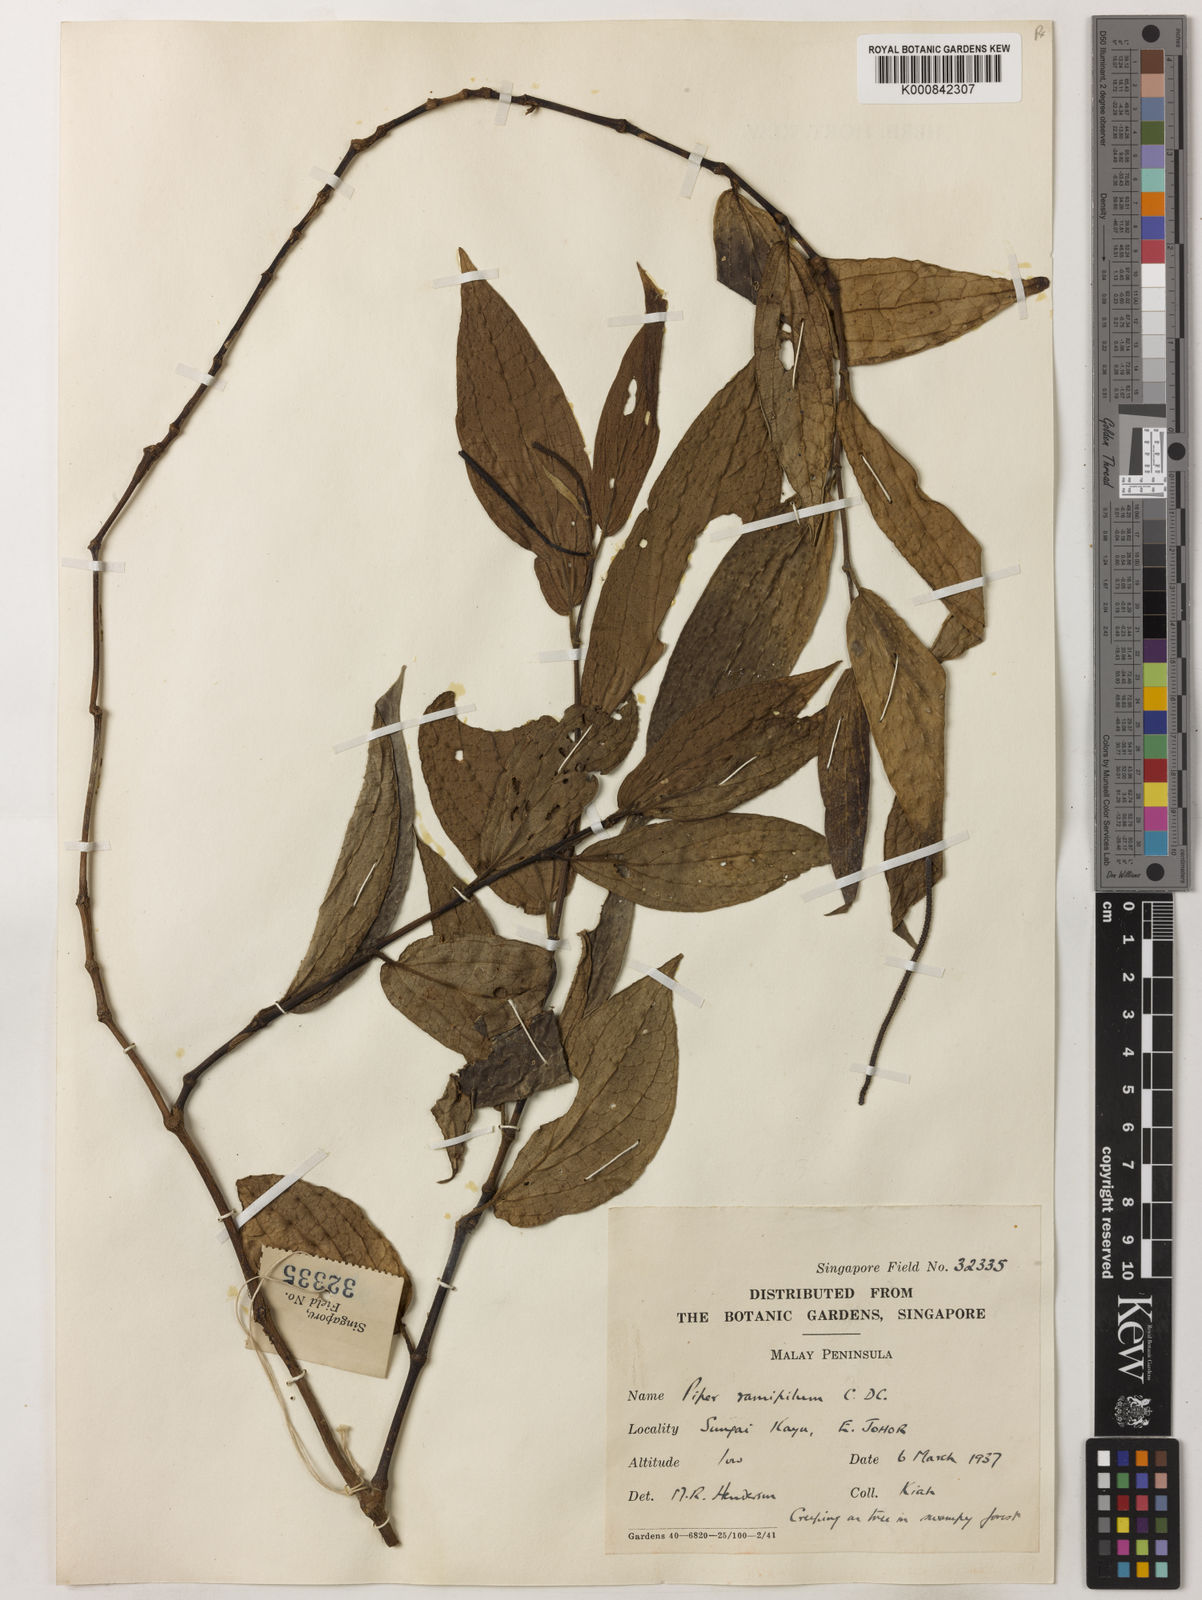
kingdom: Plantae
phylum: Tracheophyta
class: Magnoliopsida
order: Piperales
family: Piperaceae
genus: Piper
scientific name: Piper frustratum
